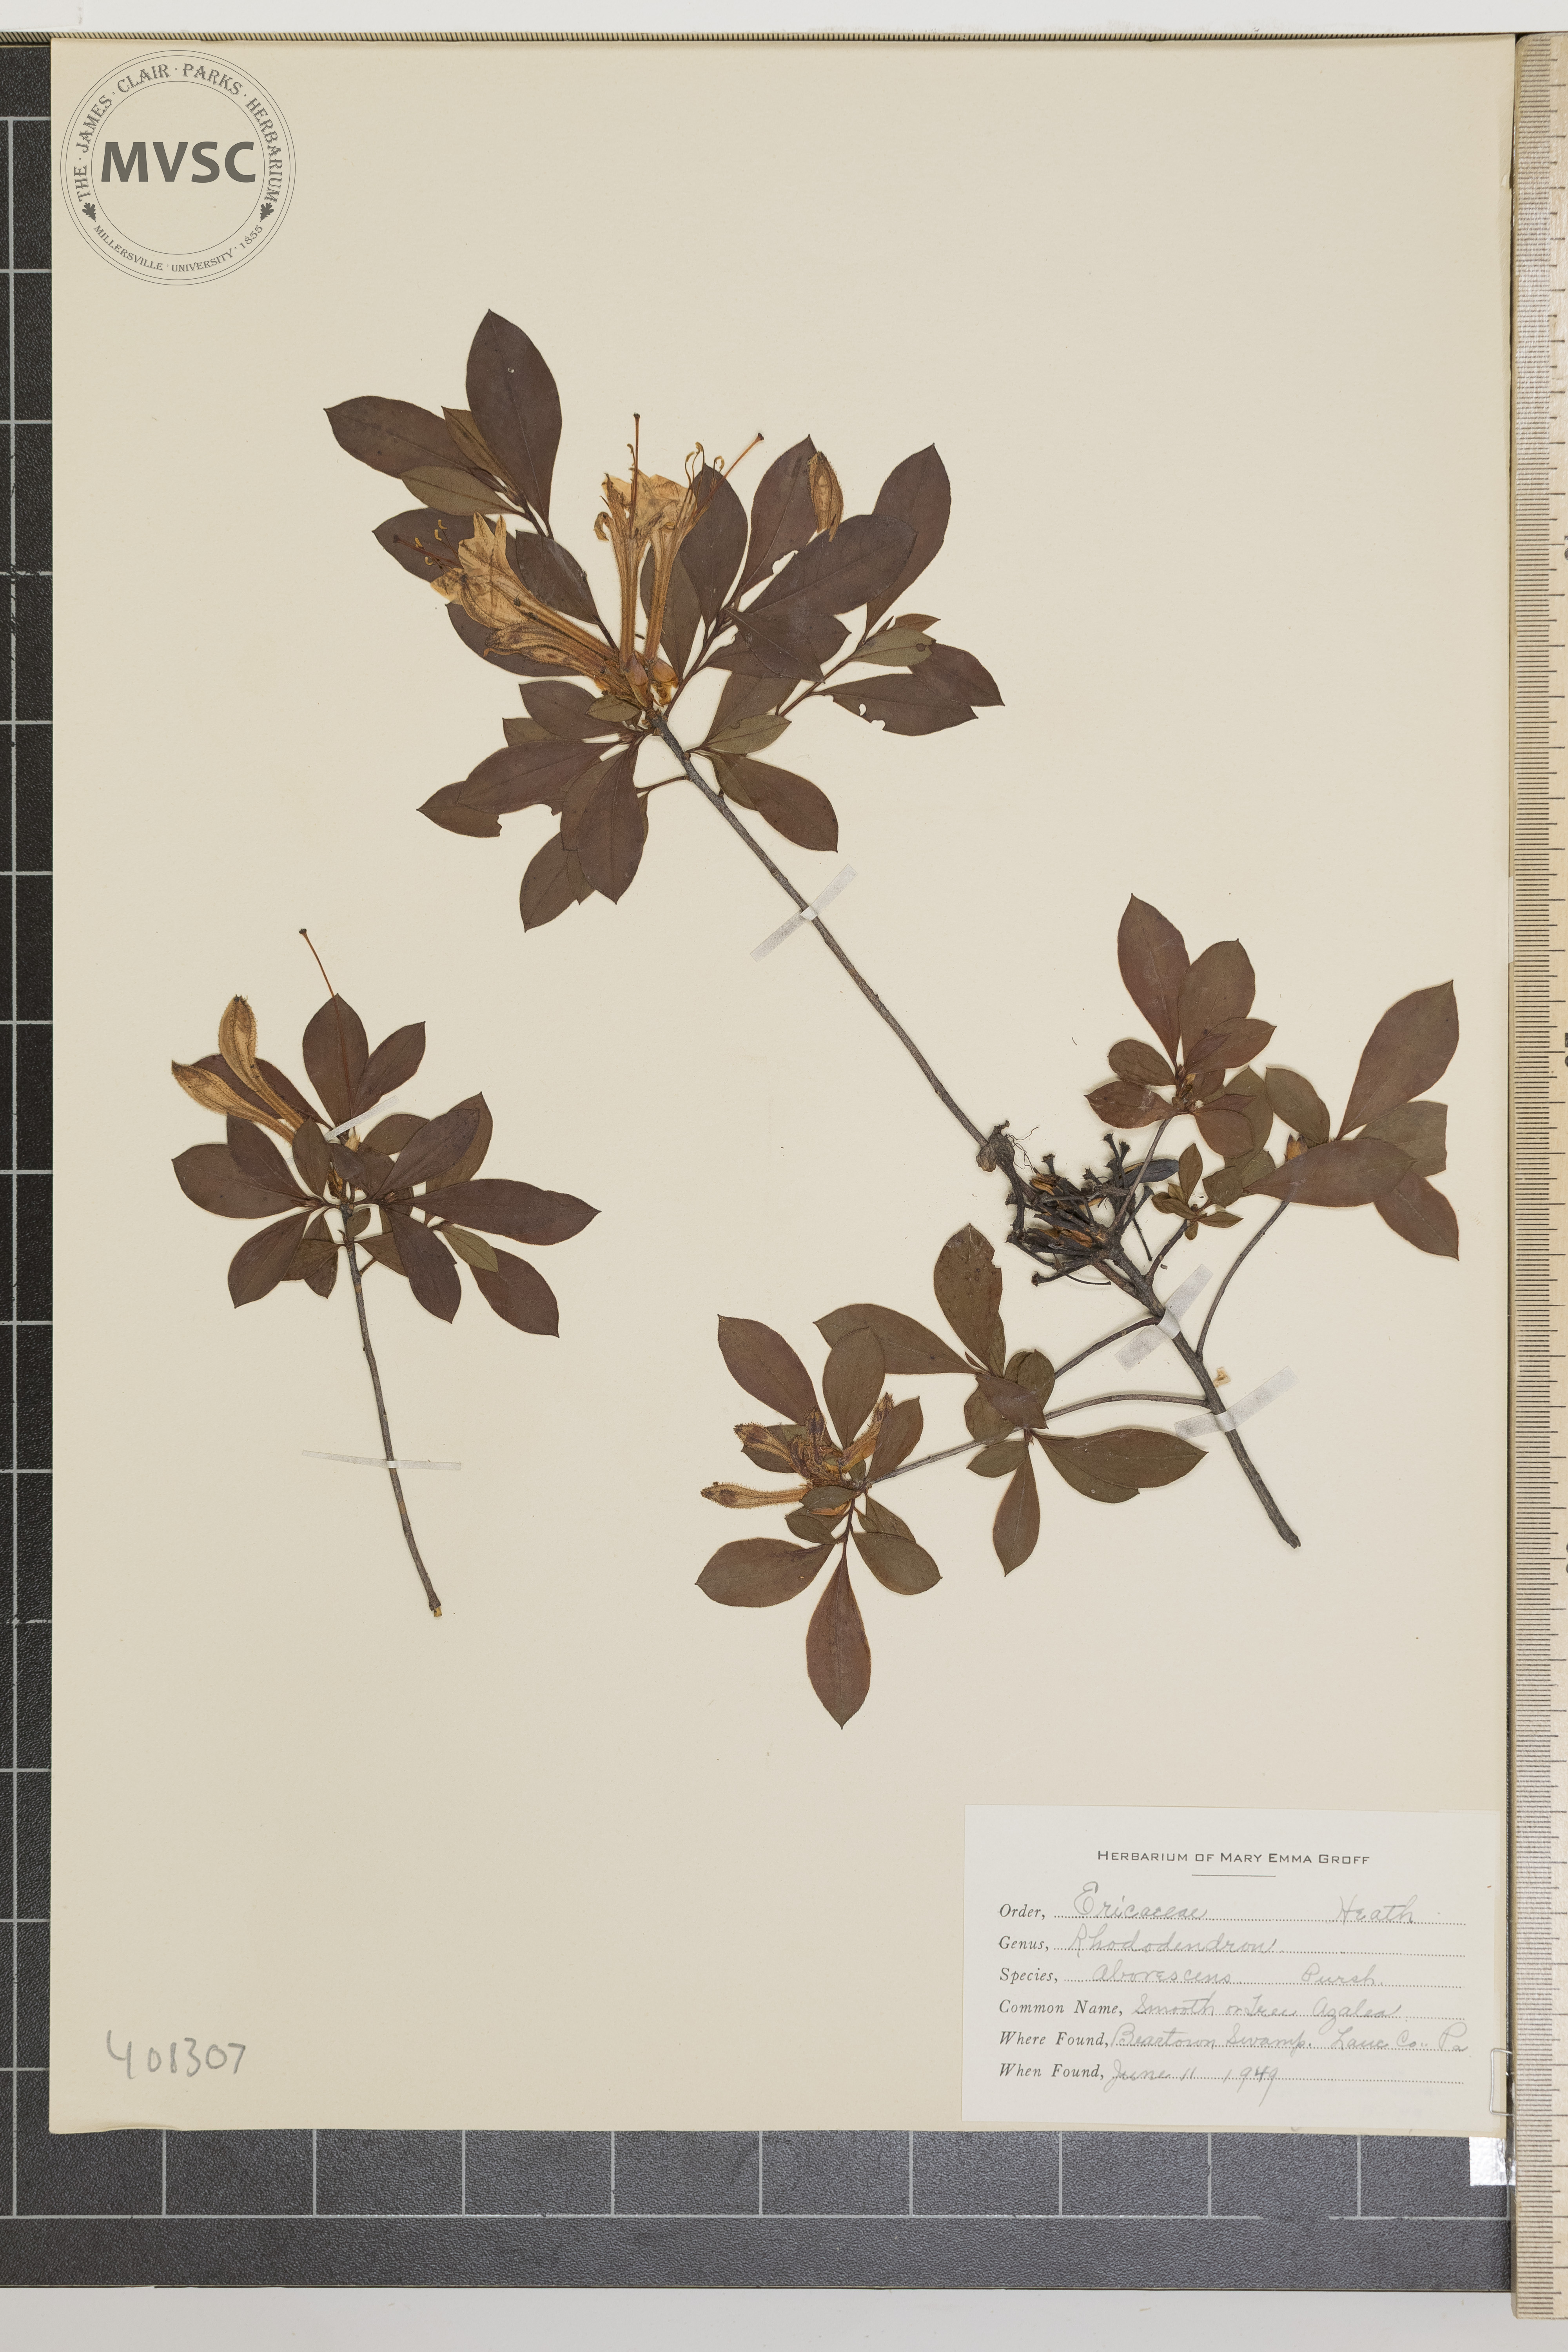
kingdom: Plantae
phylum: Tracheophyta
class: Magnoliopsida
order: Ericales
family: Ericaceae
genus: Rhododendron
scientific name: Rhododendron viscosum
